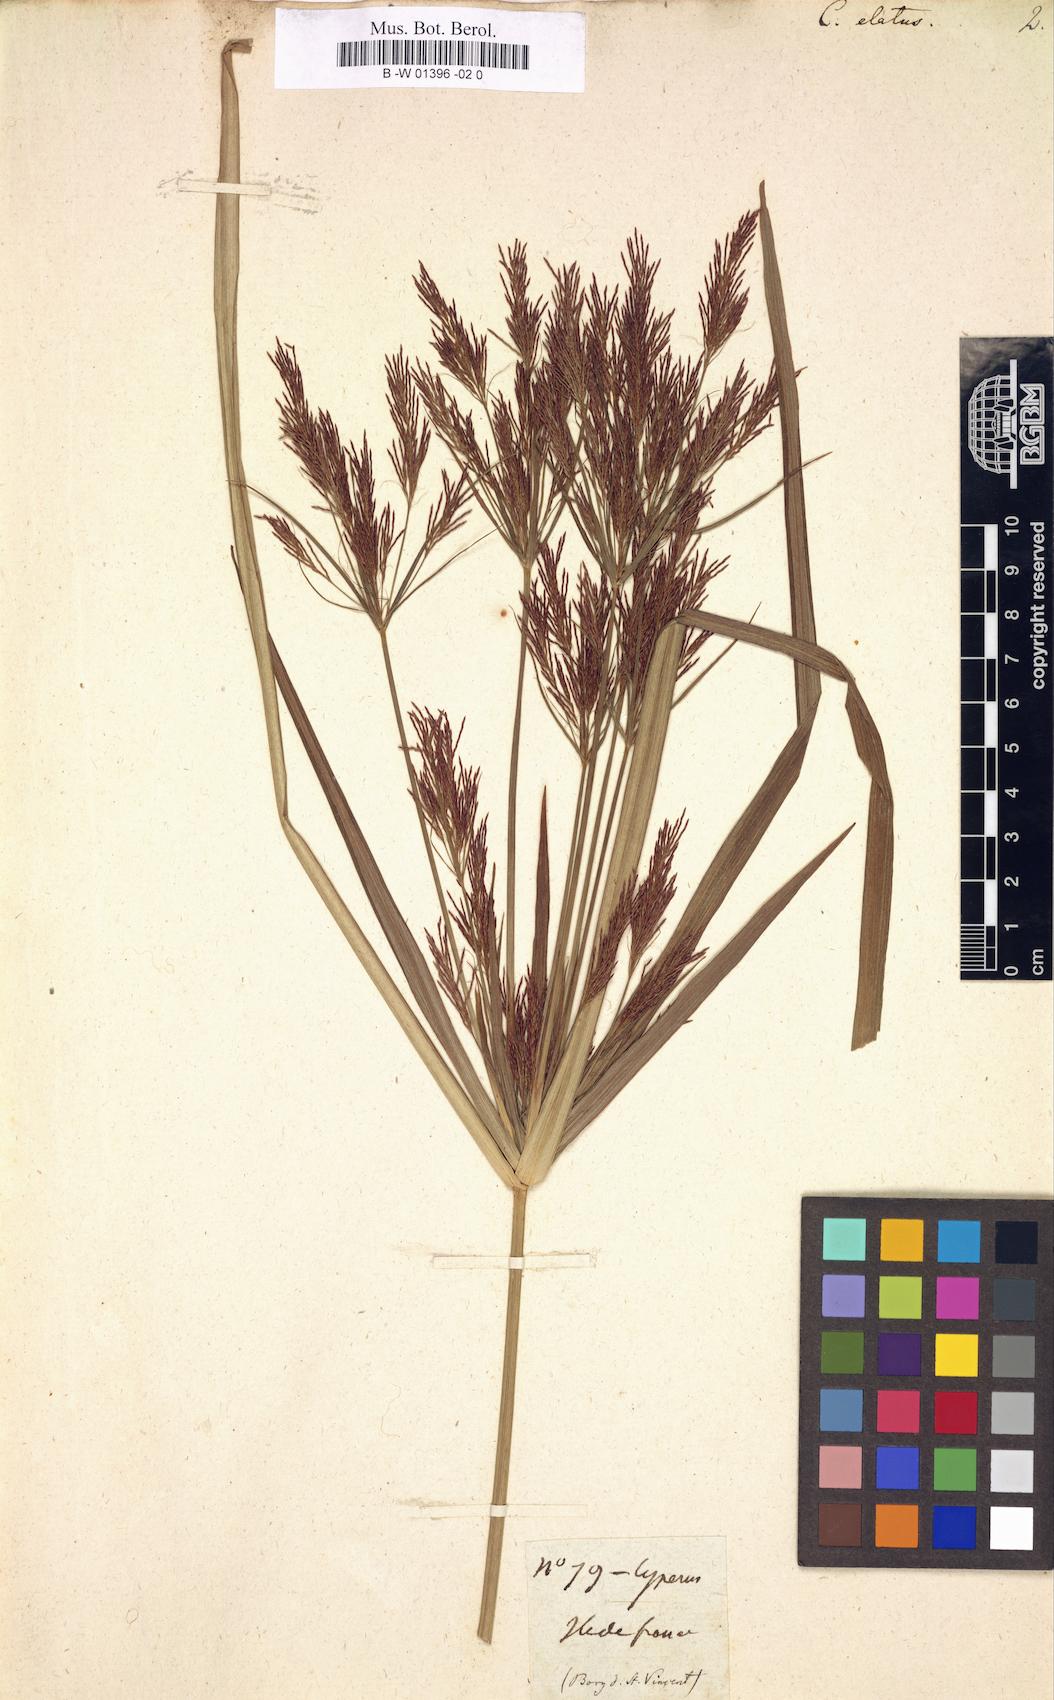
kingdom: Plantae
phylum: Tracheophyta
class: Liliopsida
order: Poales
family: Cyperaceae
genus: Cyperus
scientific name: Cyperus elatus
